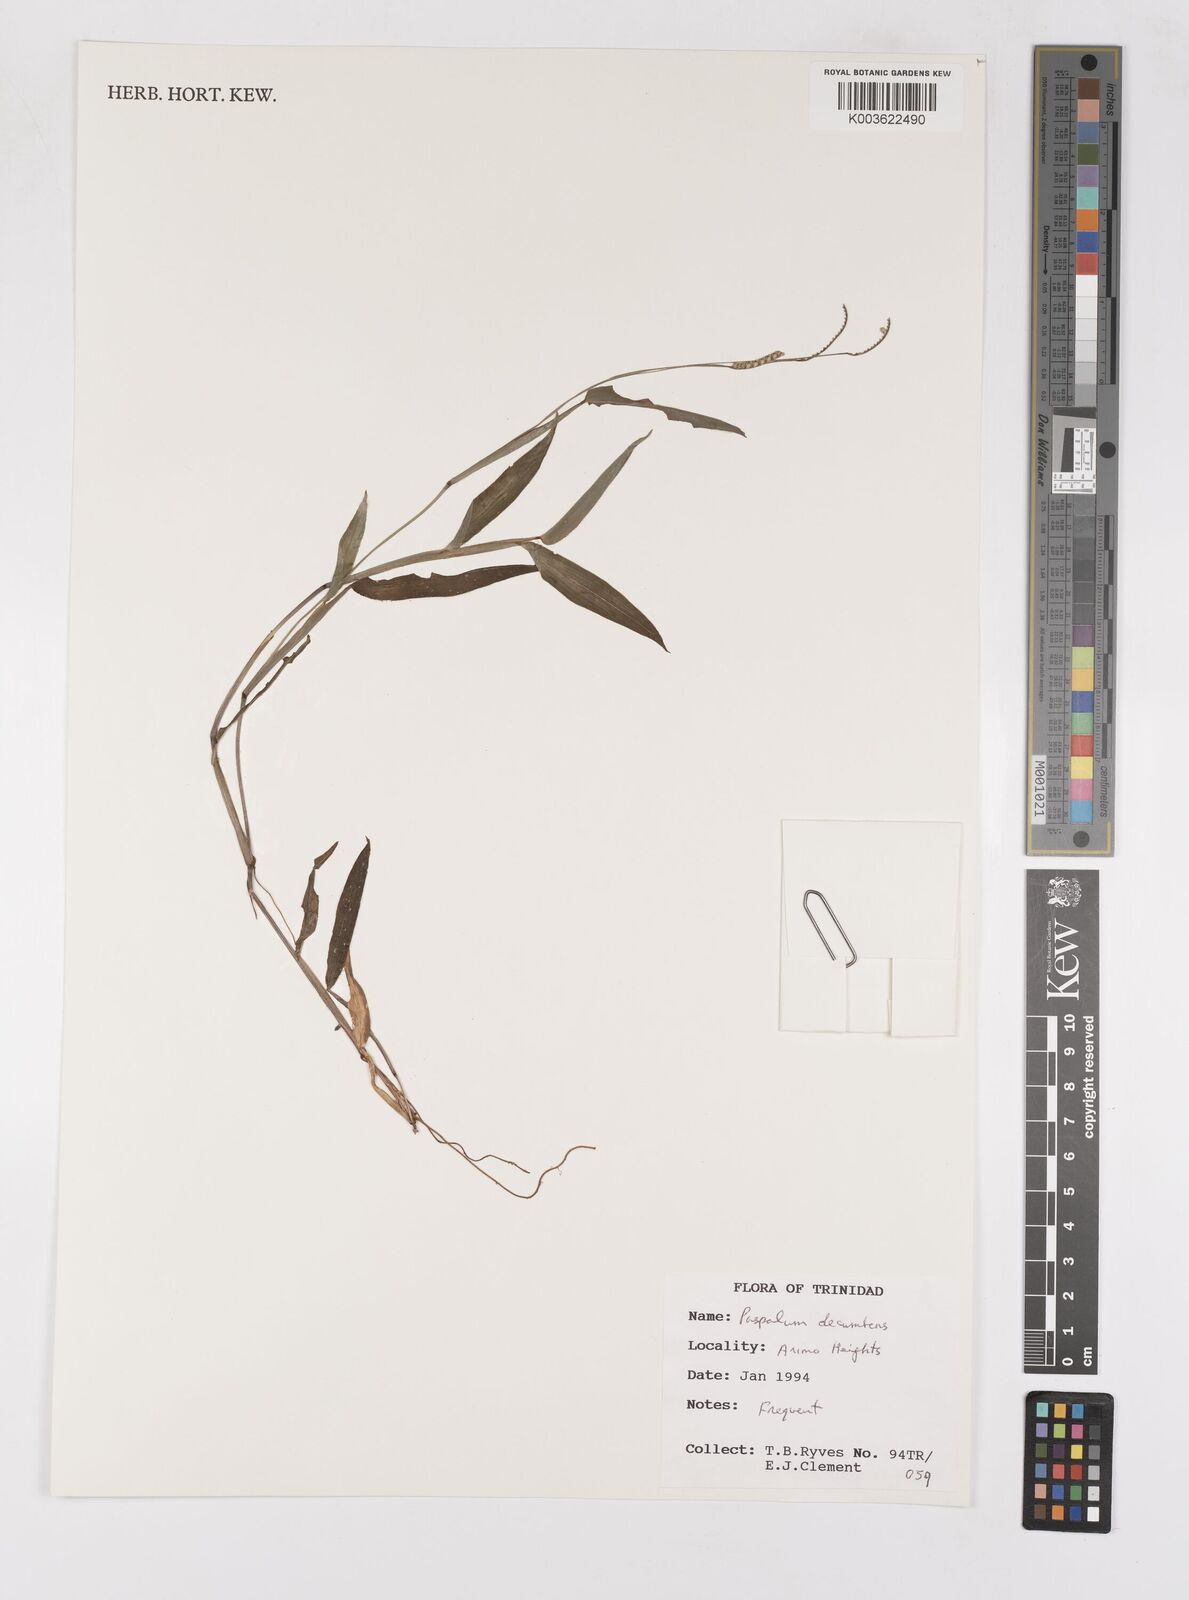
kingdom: Plantae
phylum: Tracheophyta
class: Liliopsida
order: Poales
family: Poaceae
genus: Paspalum
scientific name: Paspalum decumbens
